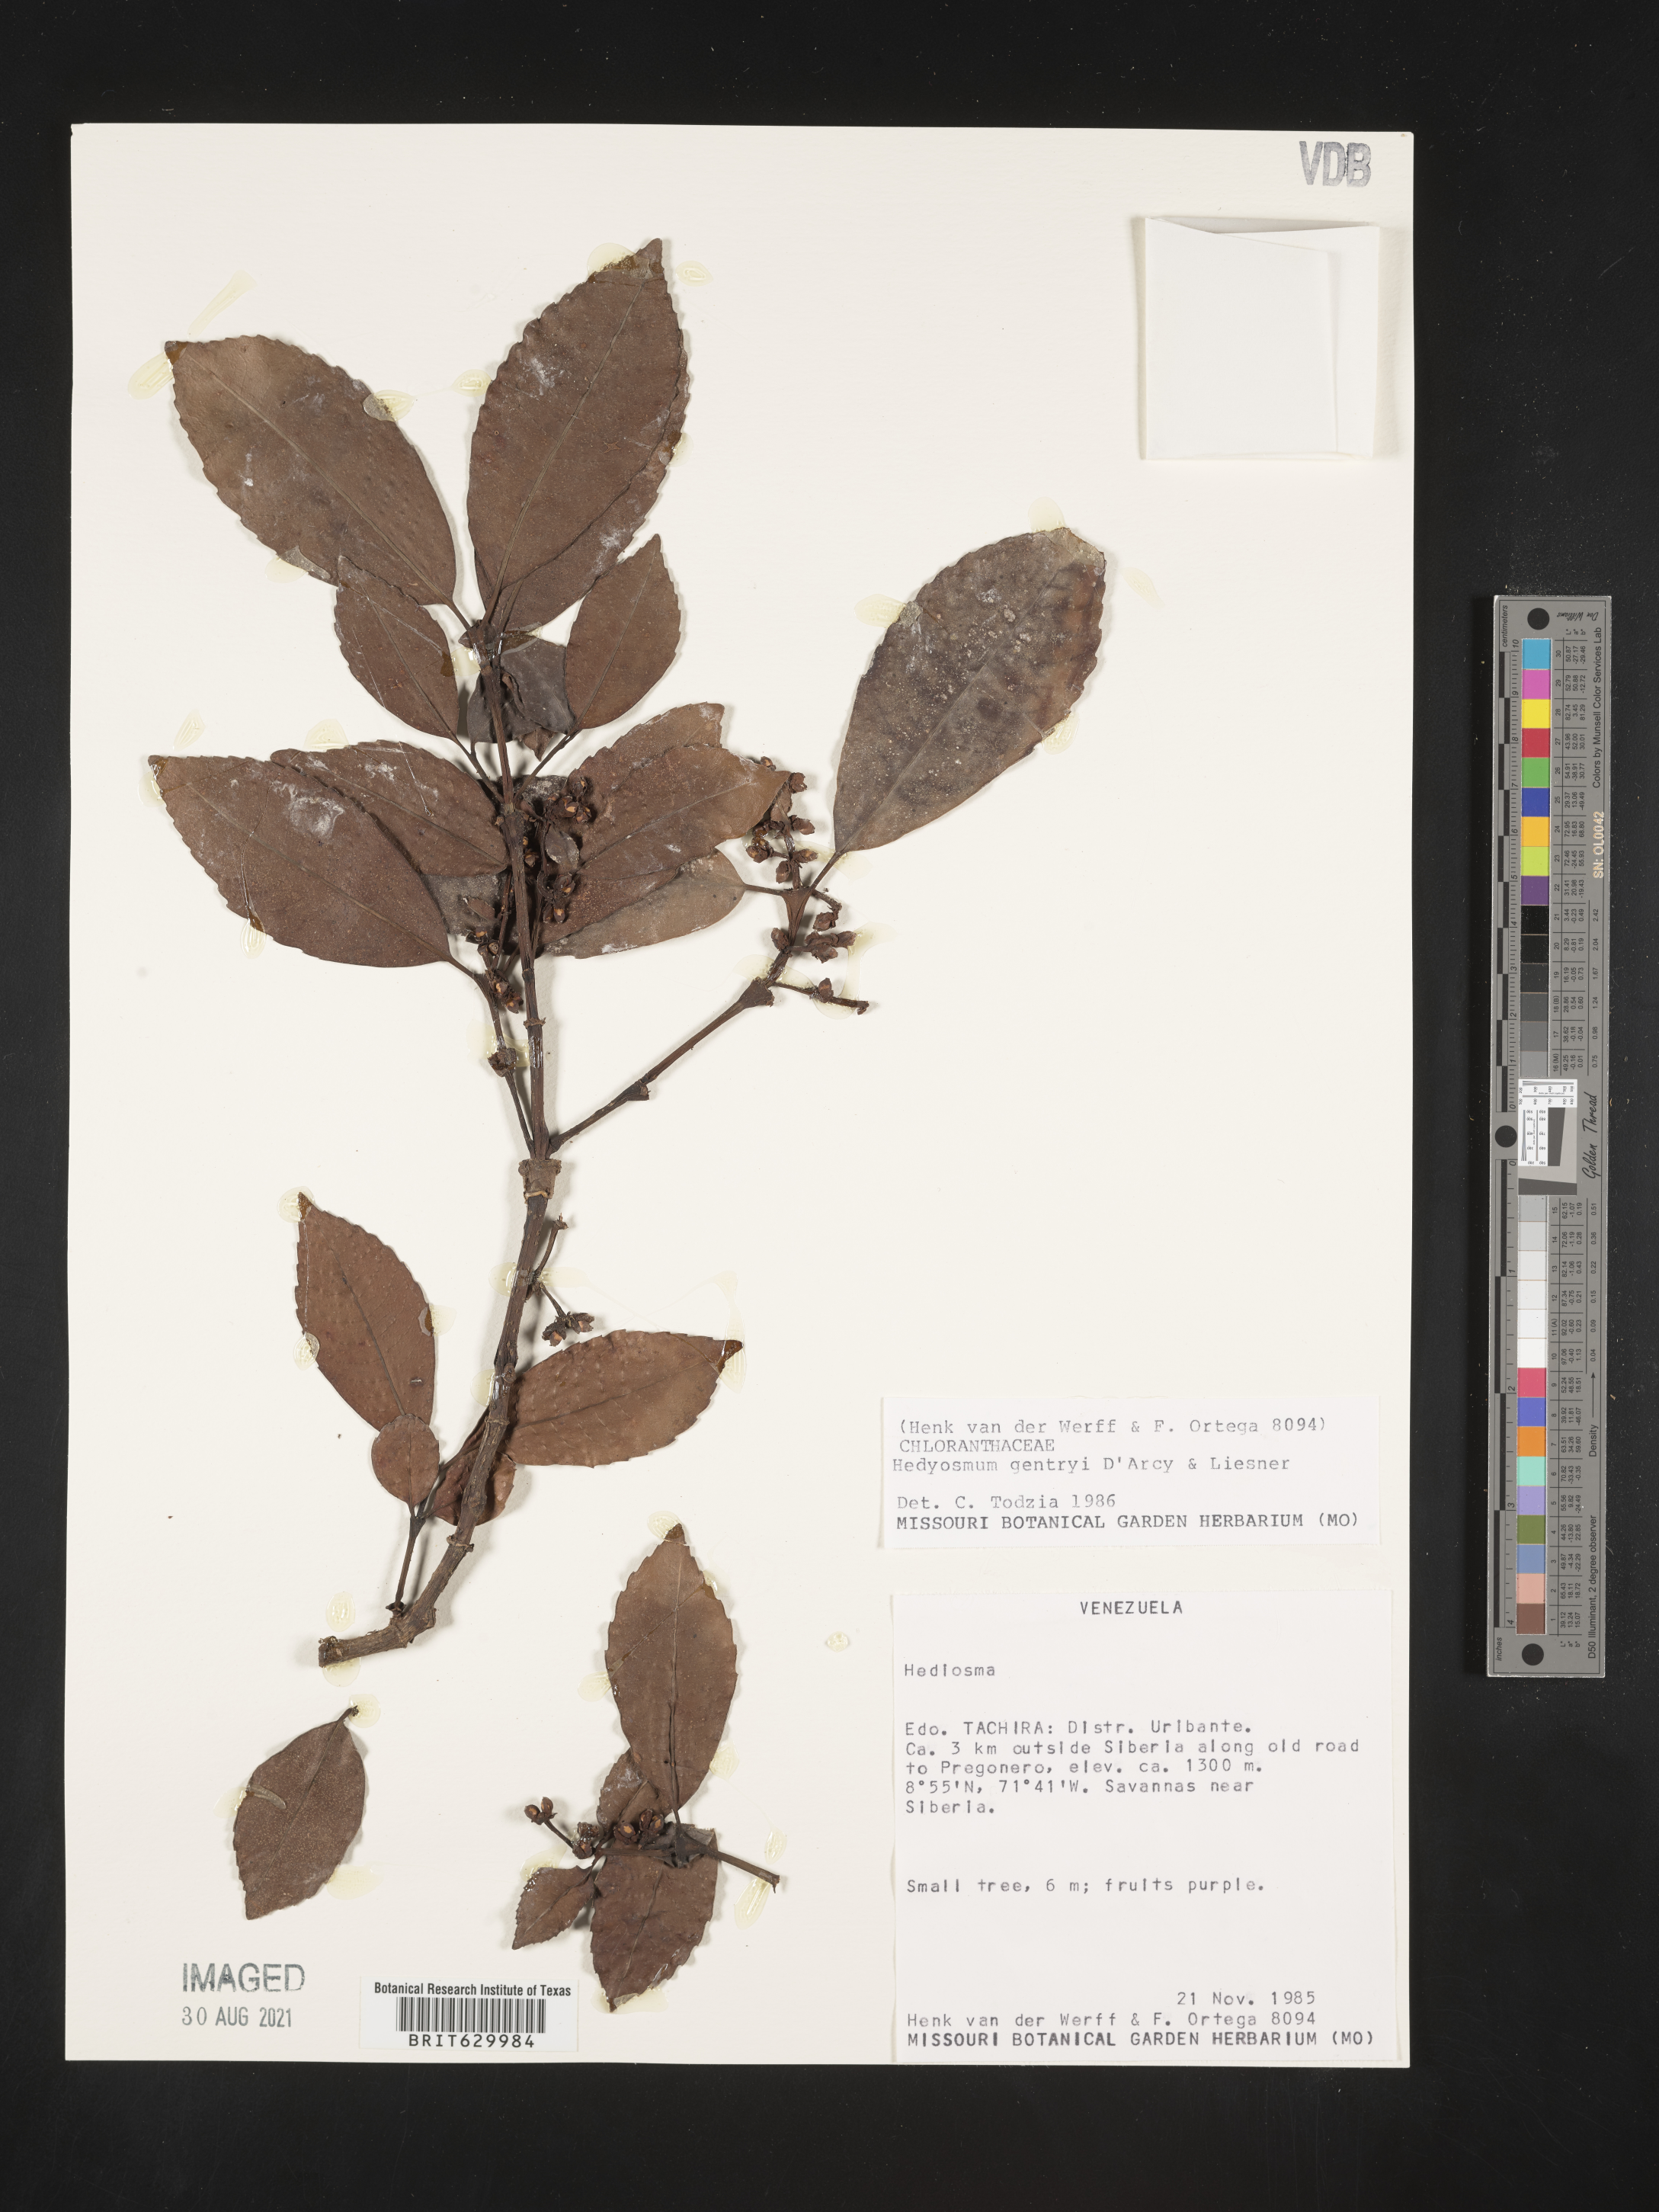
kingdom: Plantae
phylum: Tracheophyta
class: Magnoliopsida
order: Chloranthales
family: Chloranthaceae
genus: Hedyosmum
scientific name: Hedyosmum gentryi
